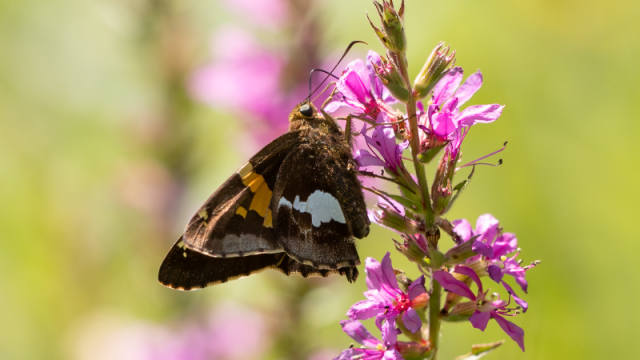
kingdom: Animalia
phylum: Arthropoda
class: Insecta
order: Lepidoptera
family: Hesperiidae
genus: Epargyreus
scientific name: Epargyreus clarus
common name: Silver-spotted Skipper
